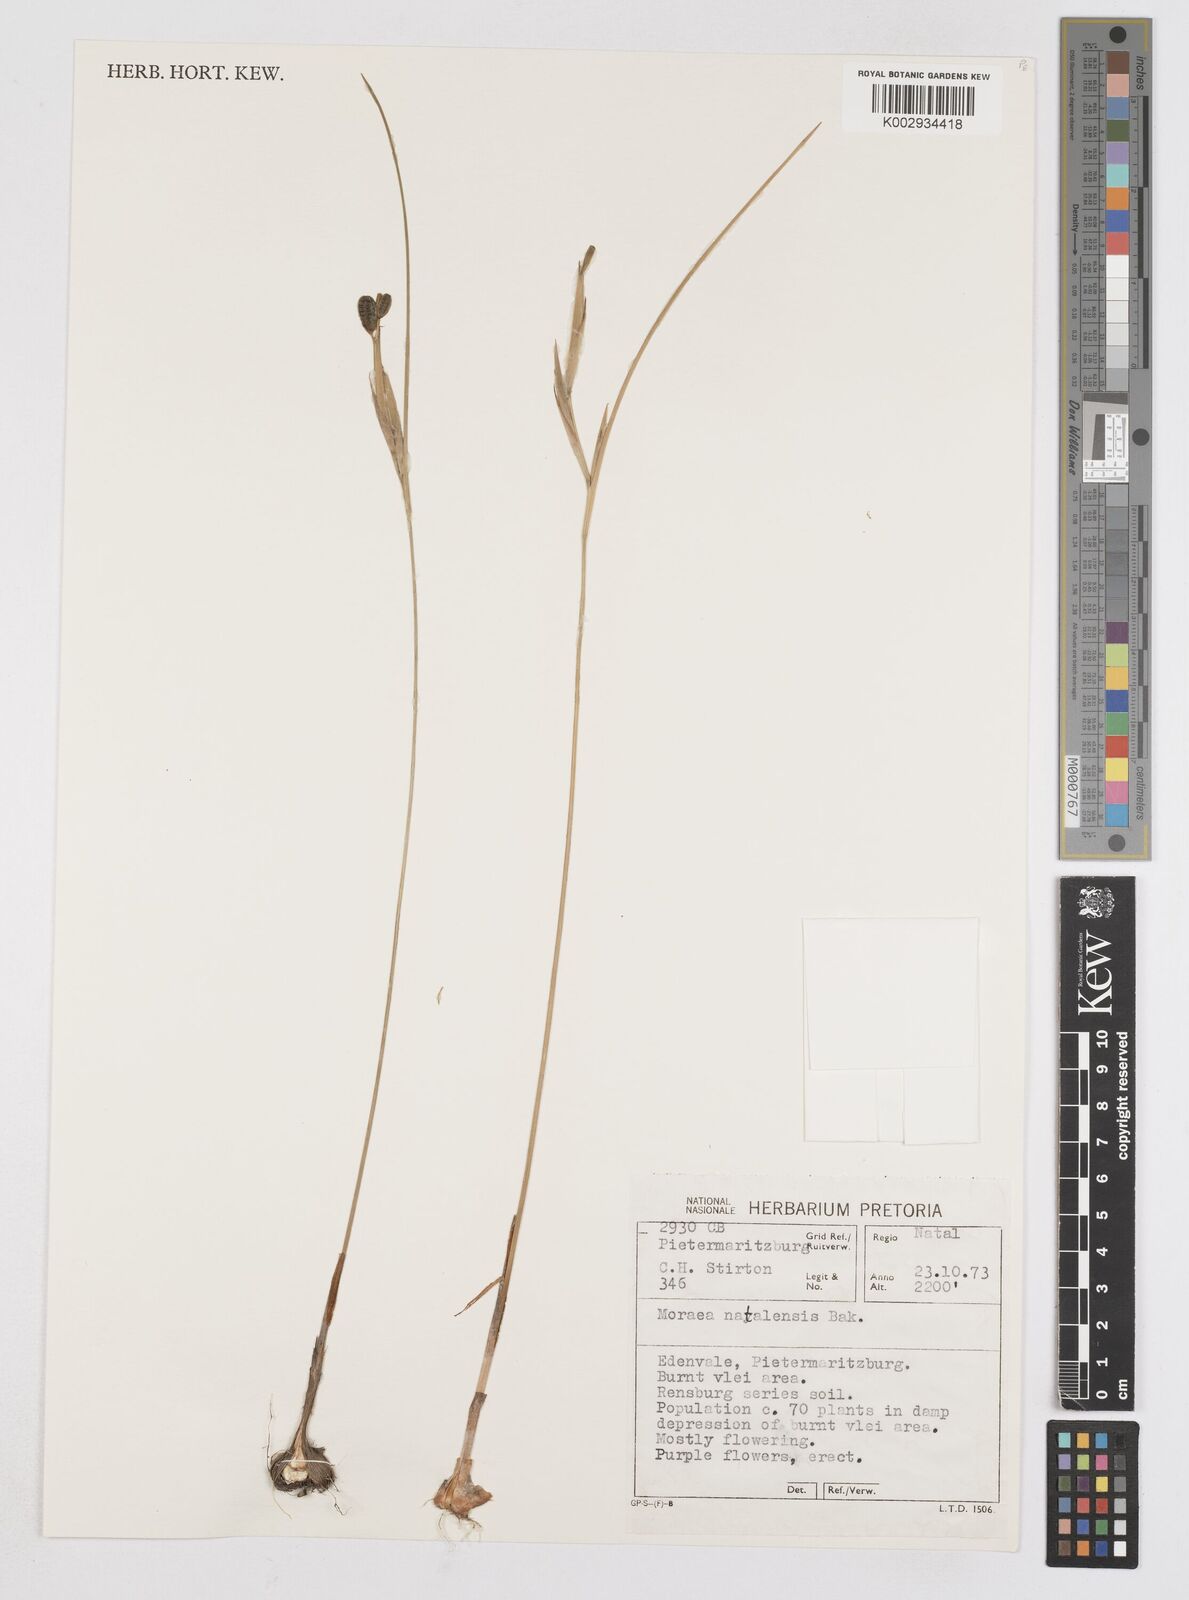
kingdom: Plantae
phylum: Tracheophyta
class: Liliopsida
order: Asparagales
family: Iridaceae
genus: Moraea
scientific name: Moraea natalensis
